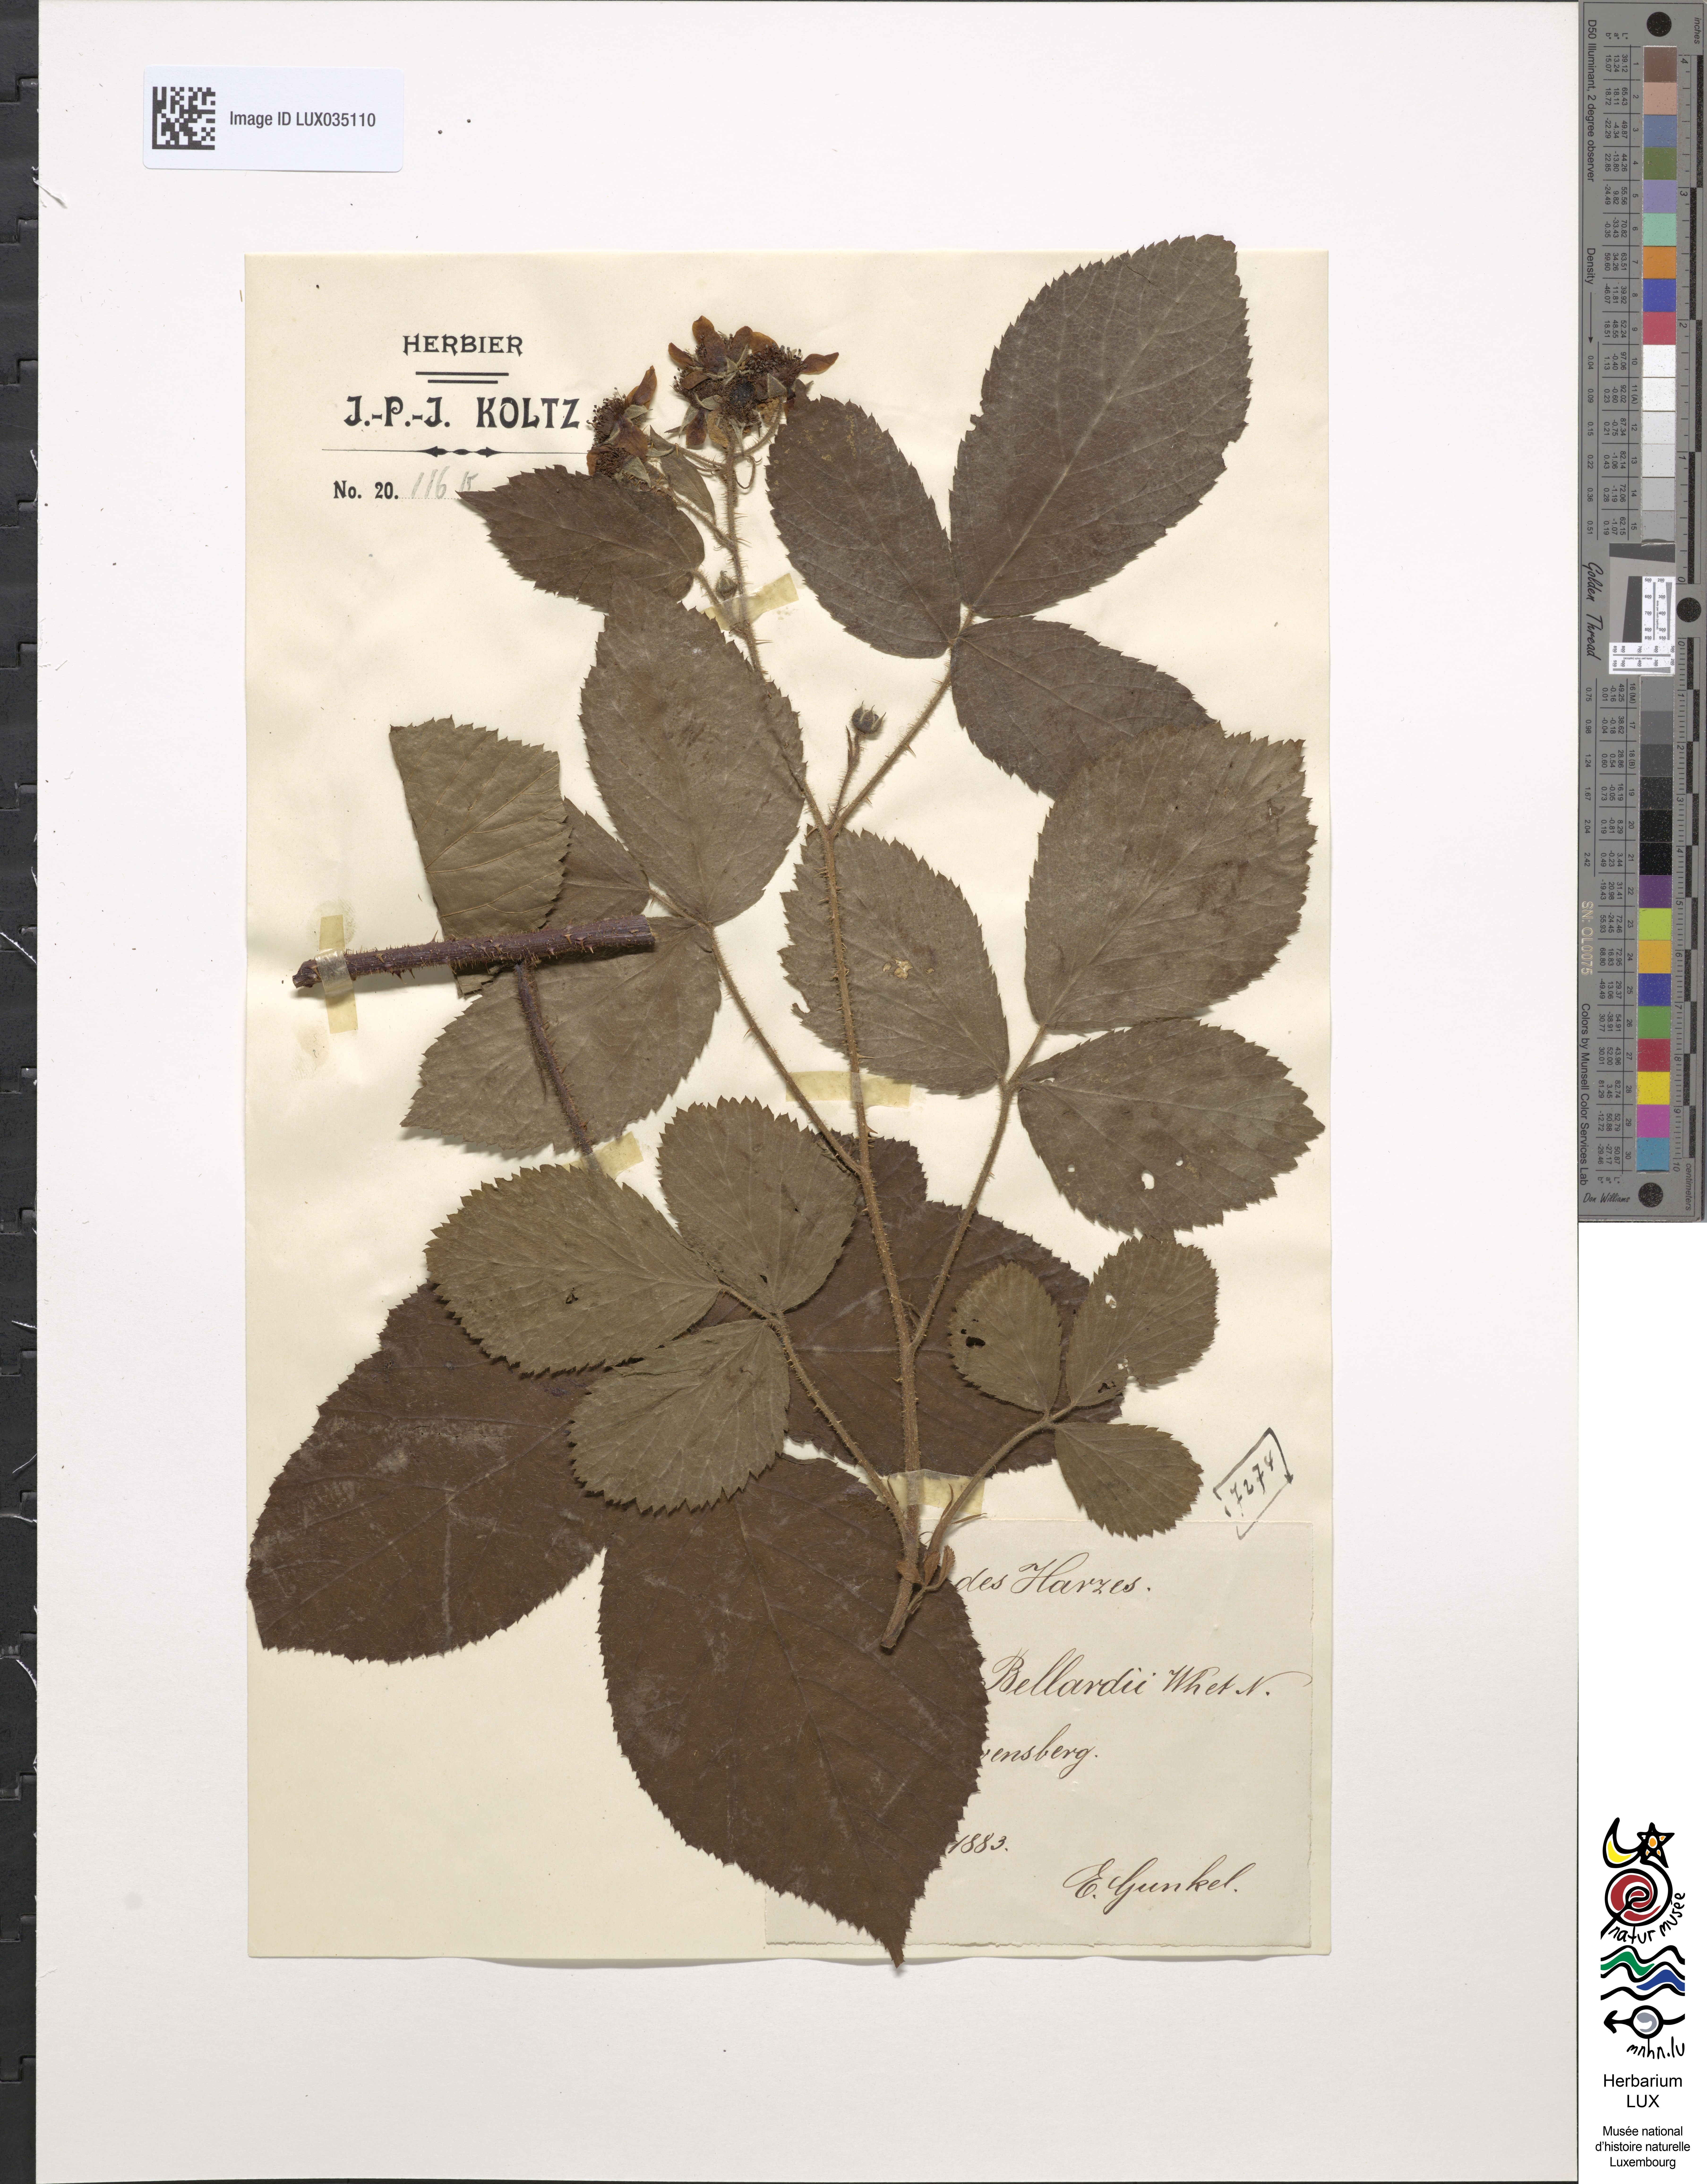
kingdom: Plantae
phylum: Tracheophyta
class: Magnoliopsida
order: Rosales
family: Rosaceae
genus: Rubus
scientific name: Rubus hirtus
